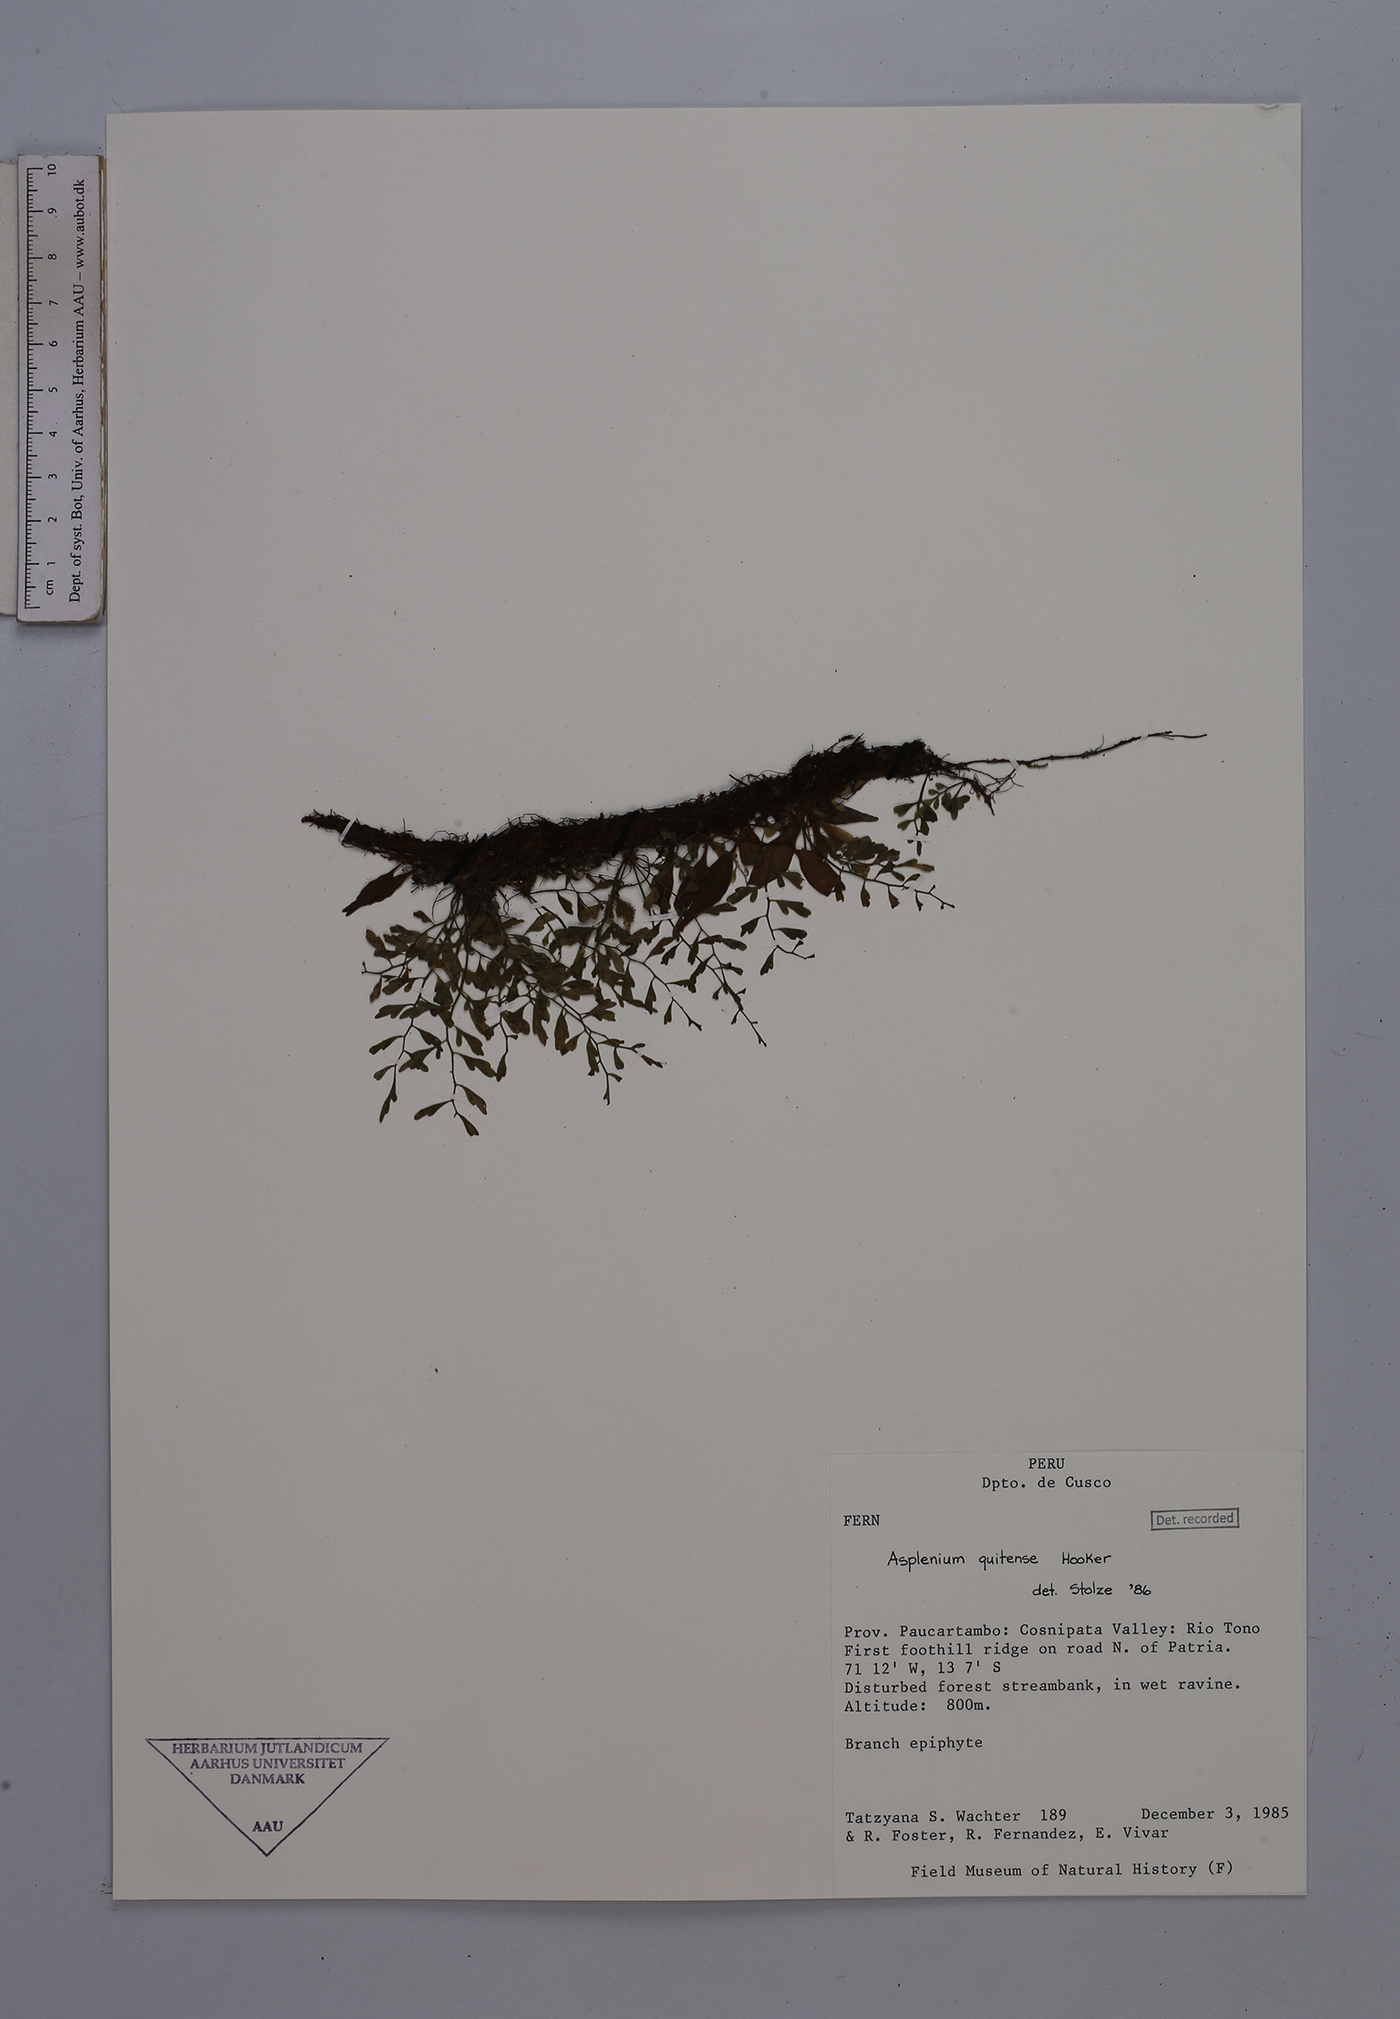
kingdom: Plantae
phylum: Tracheophyta
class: Polypodiopsida
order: Polypodiales
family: Aspleniaceae
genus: Asplenium
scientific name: Asplenium quitense
